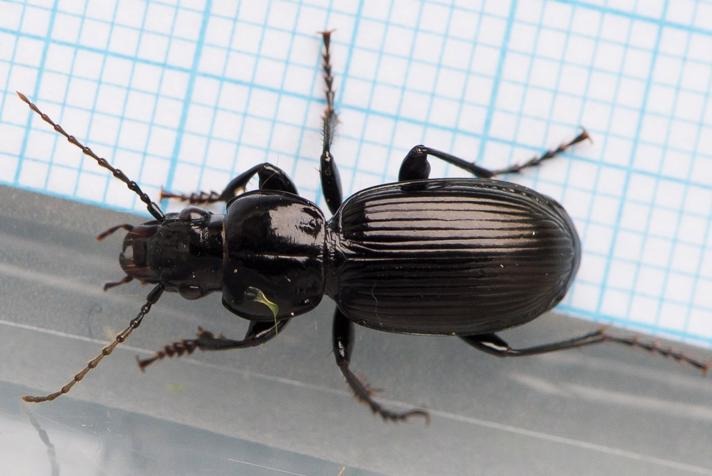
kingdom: Animalia
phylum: Arthropoda
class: Insecta
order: Coleoptera
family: Carabidae
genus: Pterostichus
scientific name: Pterostichus madidus
